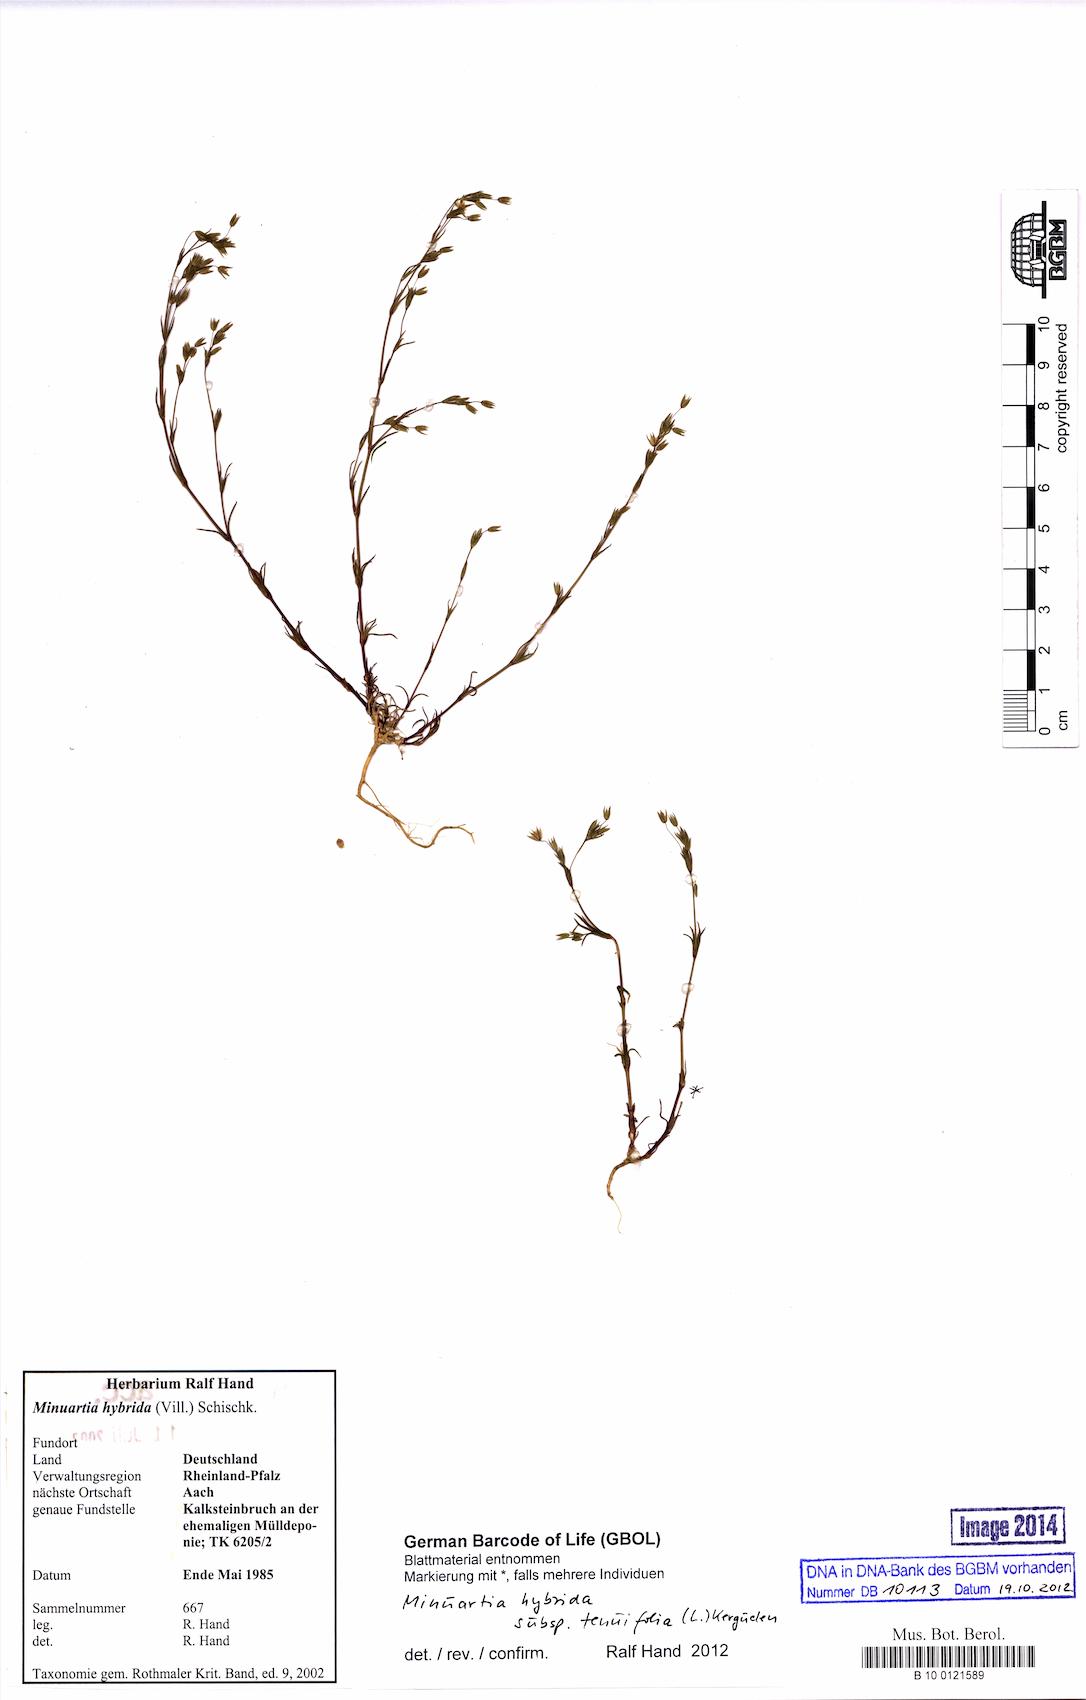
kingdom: Plantae
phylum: Tracheophyta
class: Magnoliopsida
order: Caryophyllales
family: Caryophyllaceae
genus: Sabulina
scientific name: Sabulina tenuifolia
